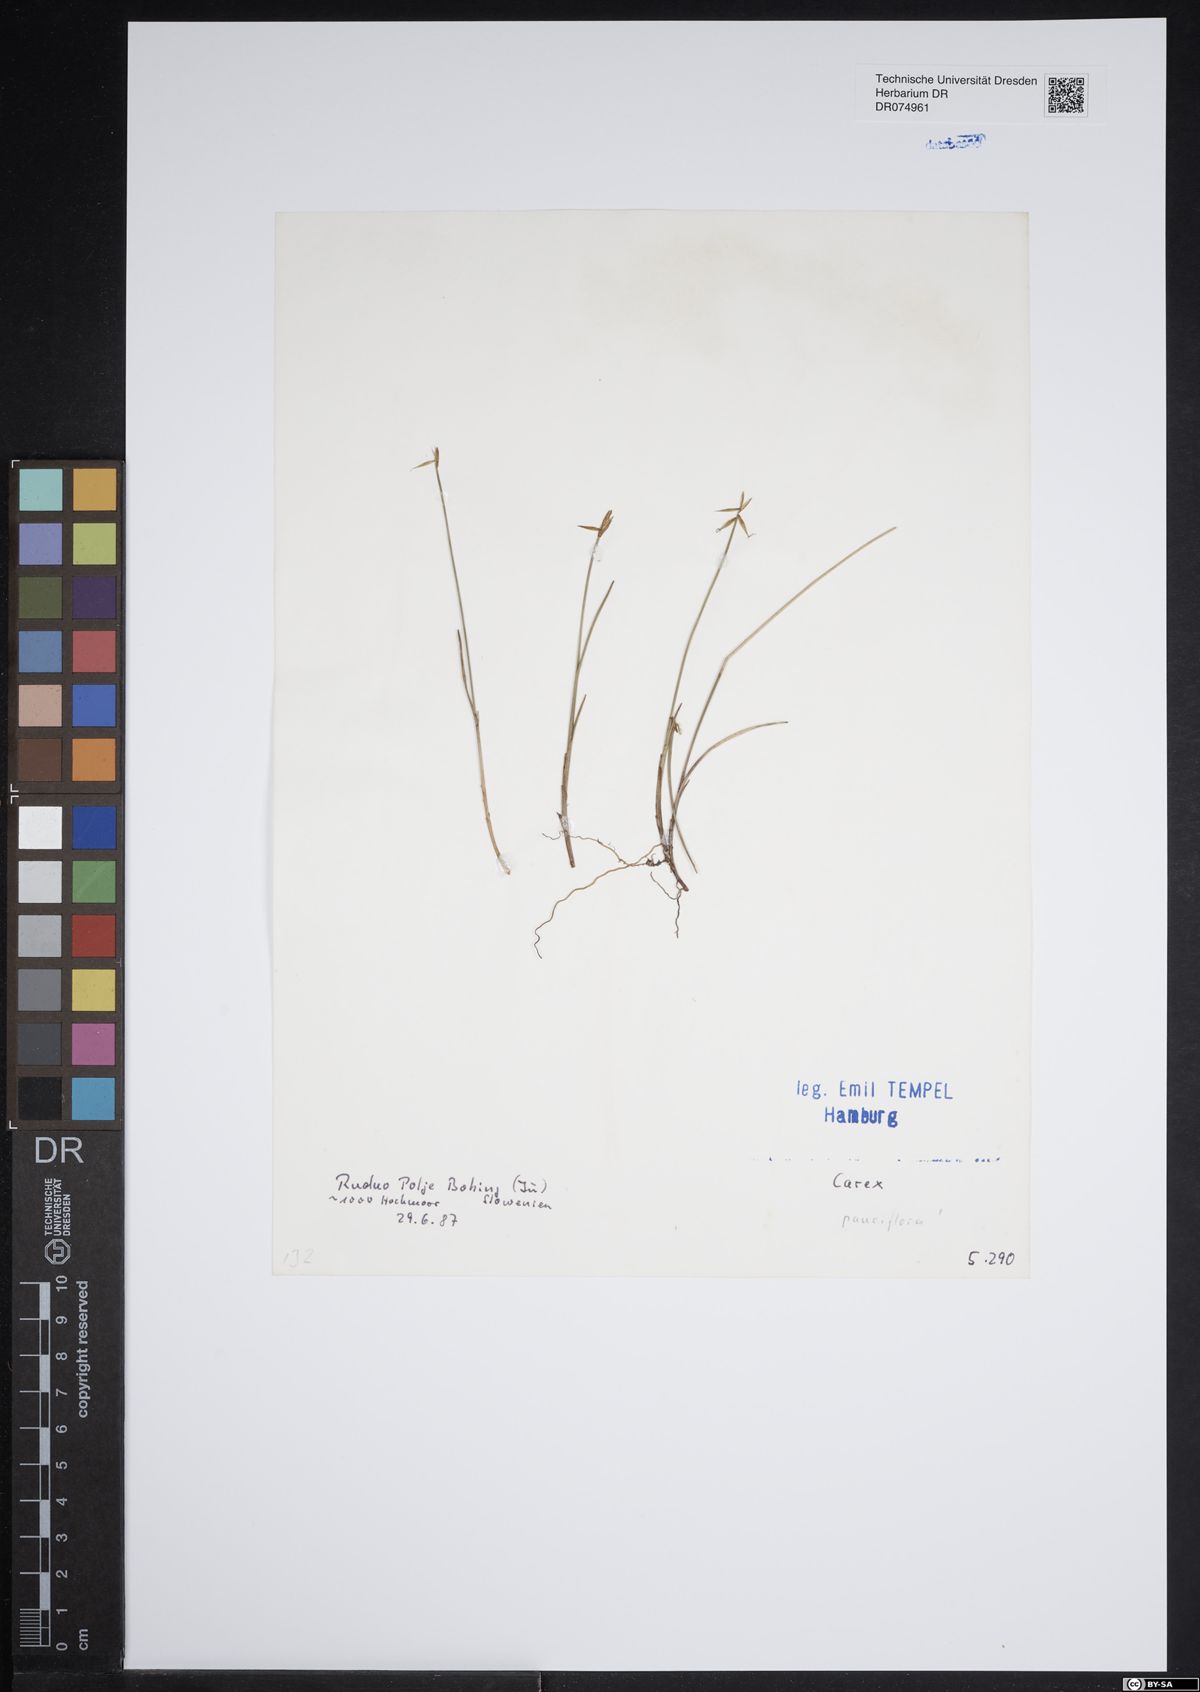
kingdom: Plantae
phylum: Tracheophyta
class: Liliopsida
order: Poales
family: Cyperaceae
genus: Carex
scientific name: Carex pauciflora
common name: Few-flowered sedge
